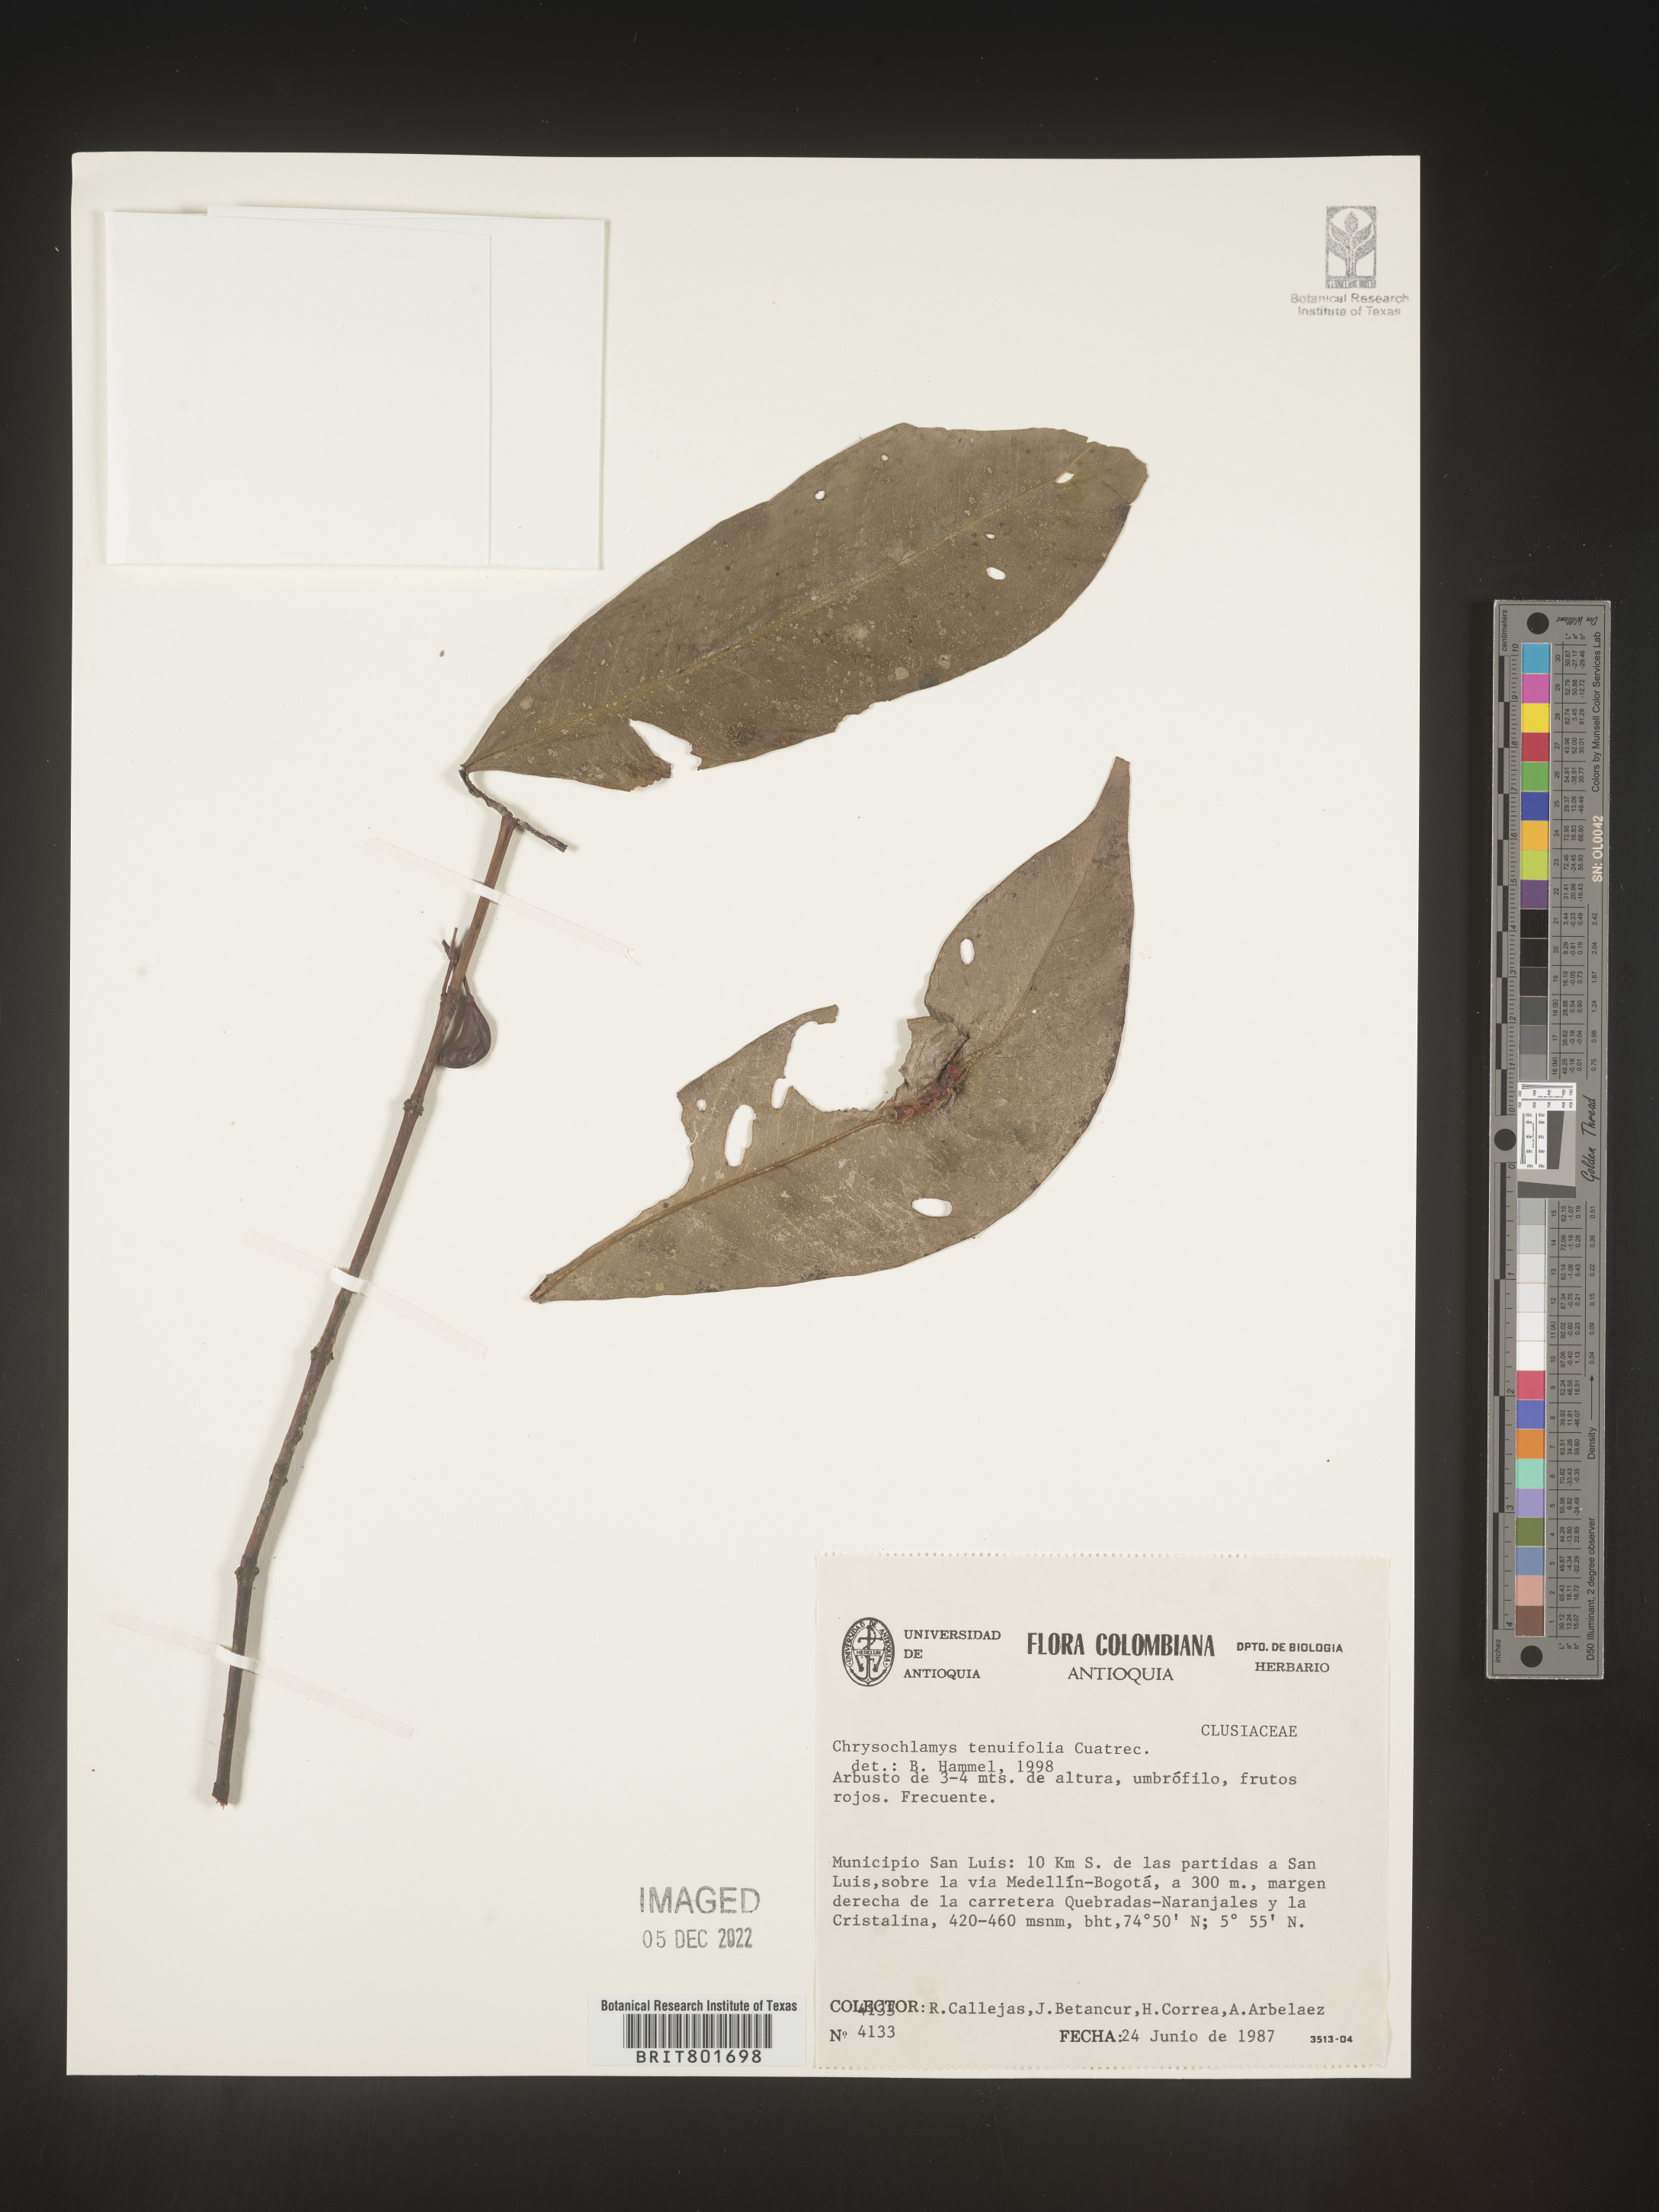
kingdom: Plantae
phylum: Tracheophyta
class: Magnoliopsida
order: Malpighiales
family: Clusiaceae
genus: Chrysochlamys
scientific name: Chrysochlamys
